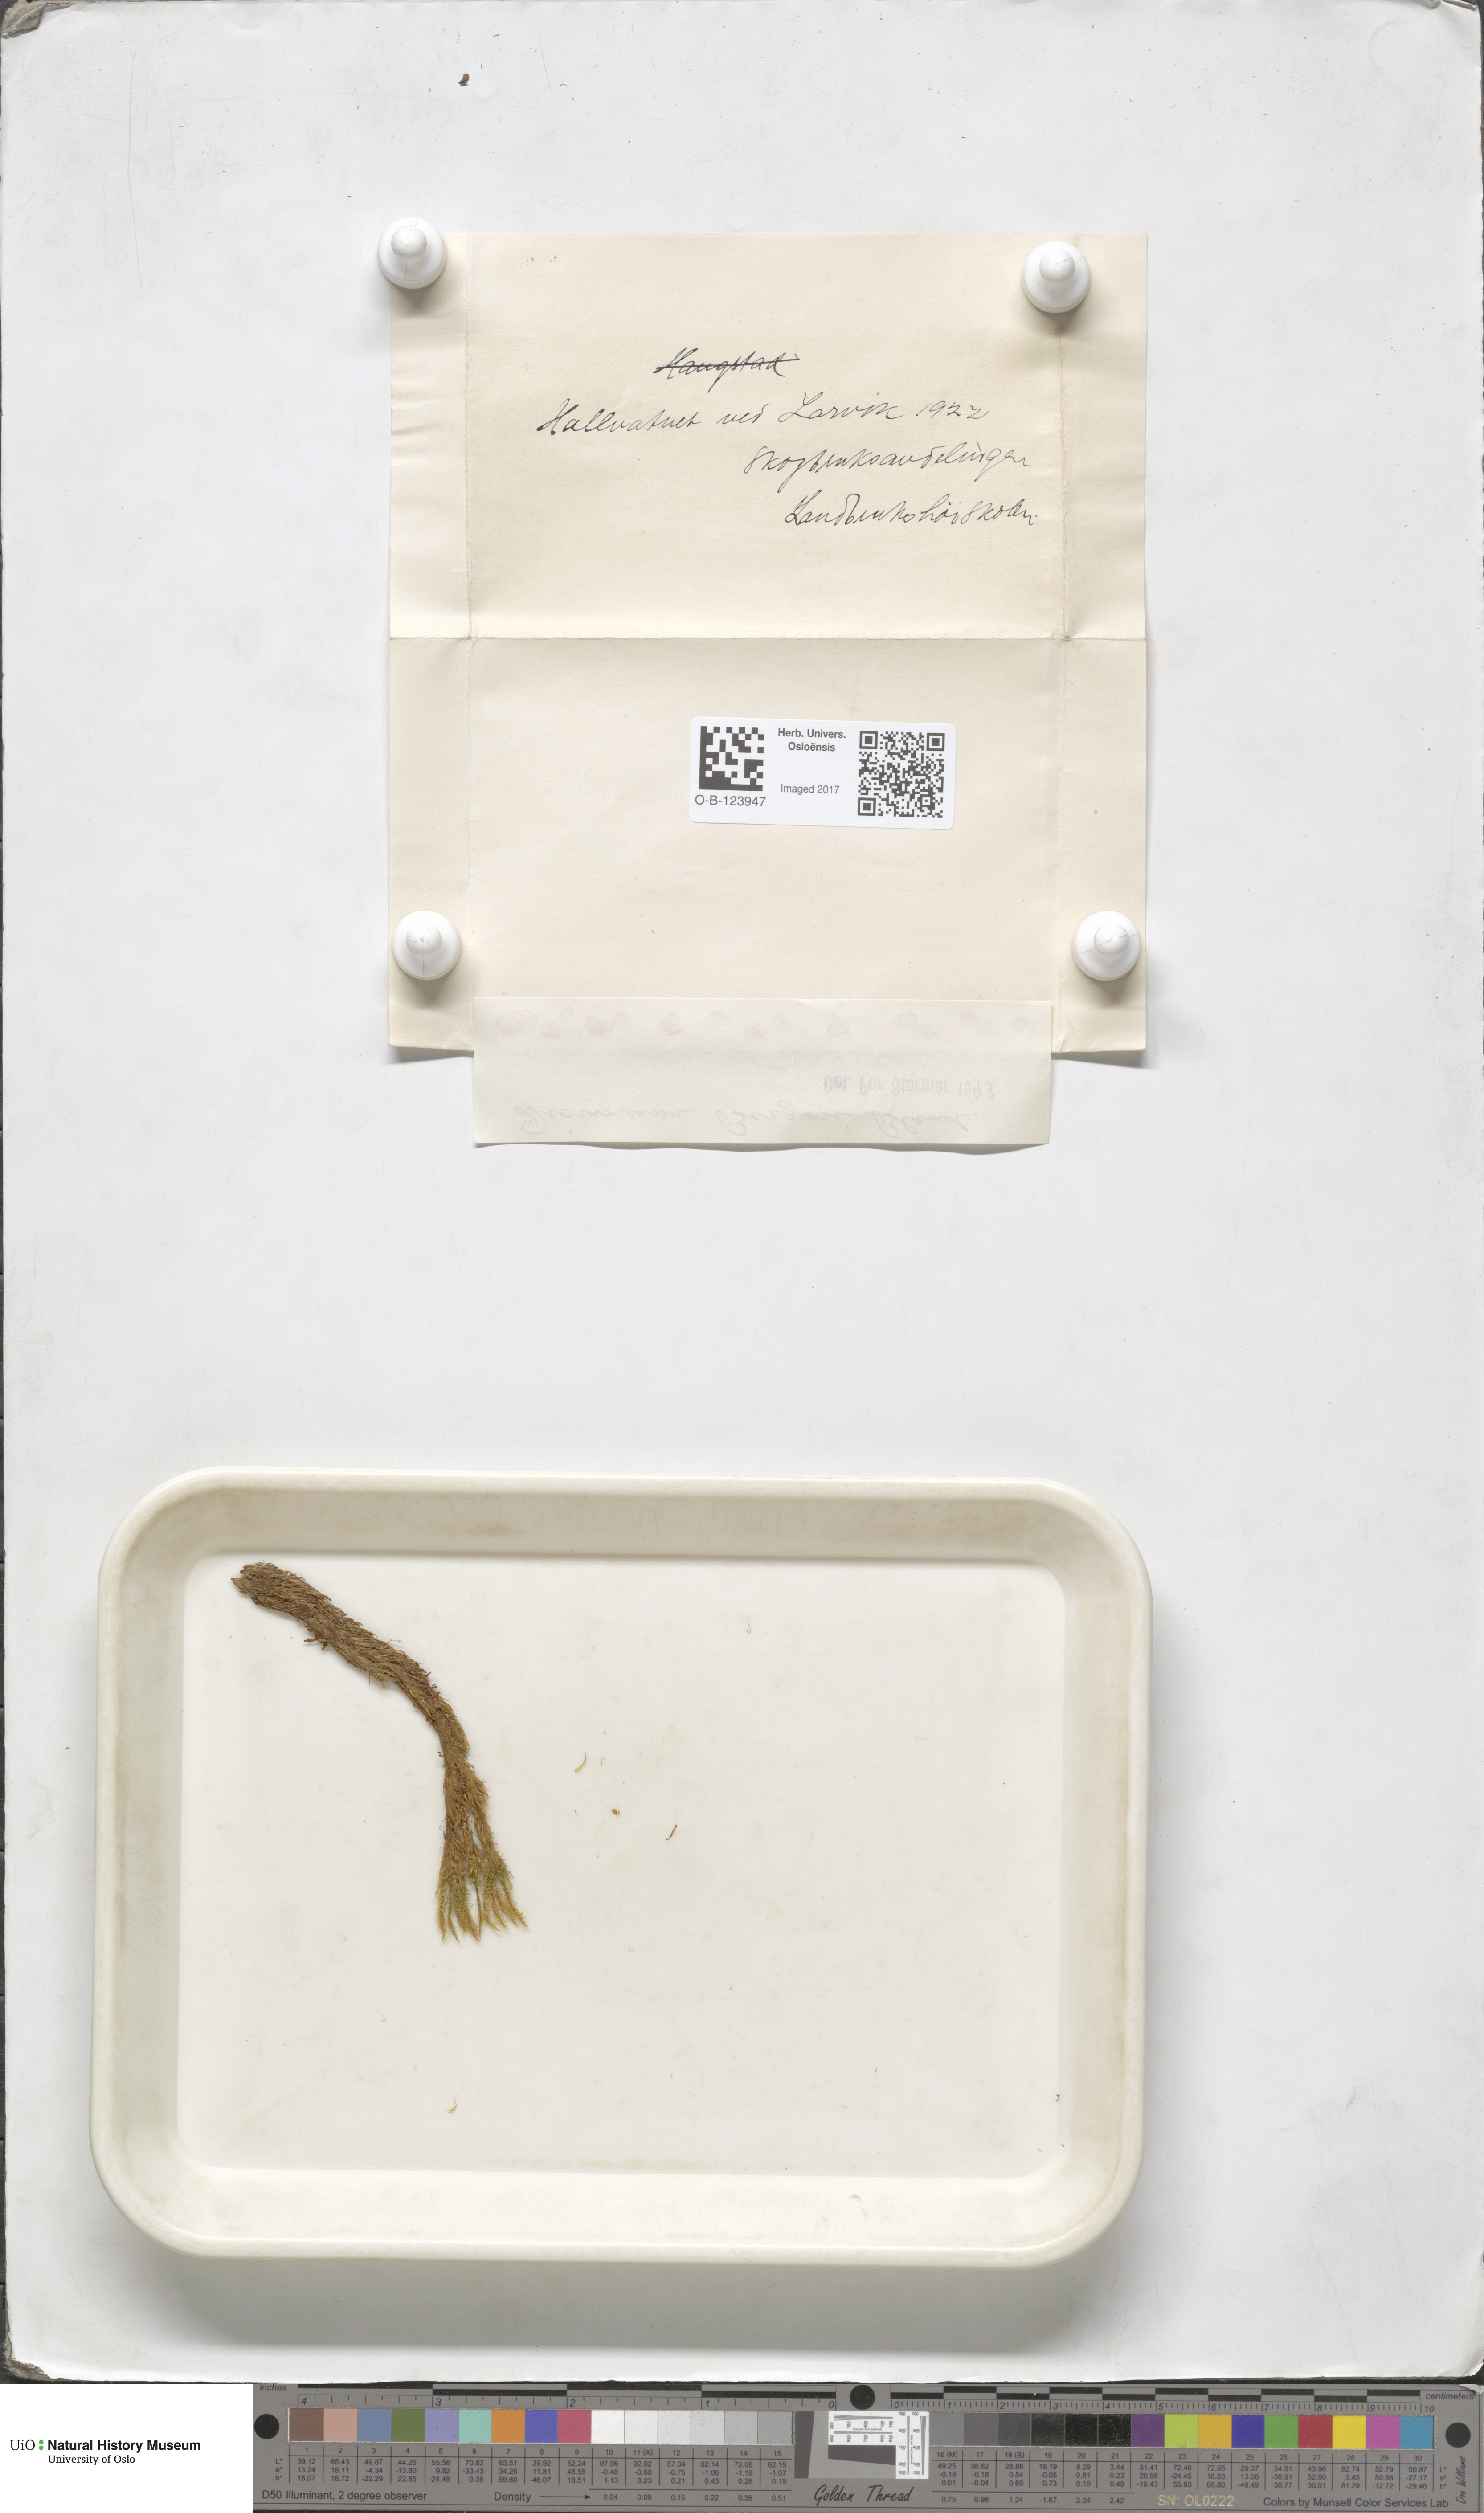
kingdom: Plantae
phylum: Bryophyta
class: Bryopsida
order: Dicranales
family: Dicranaceae
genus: Dicranum
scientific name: Dicranum undulatum
